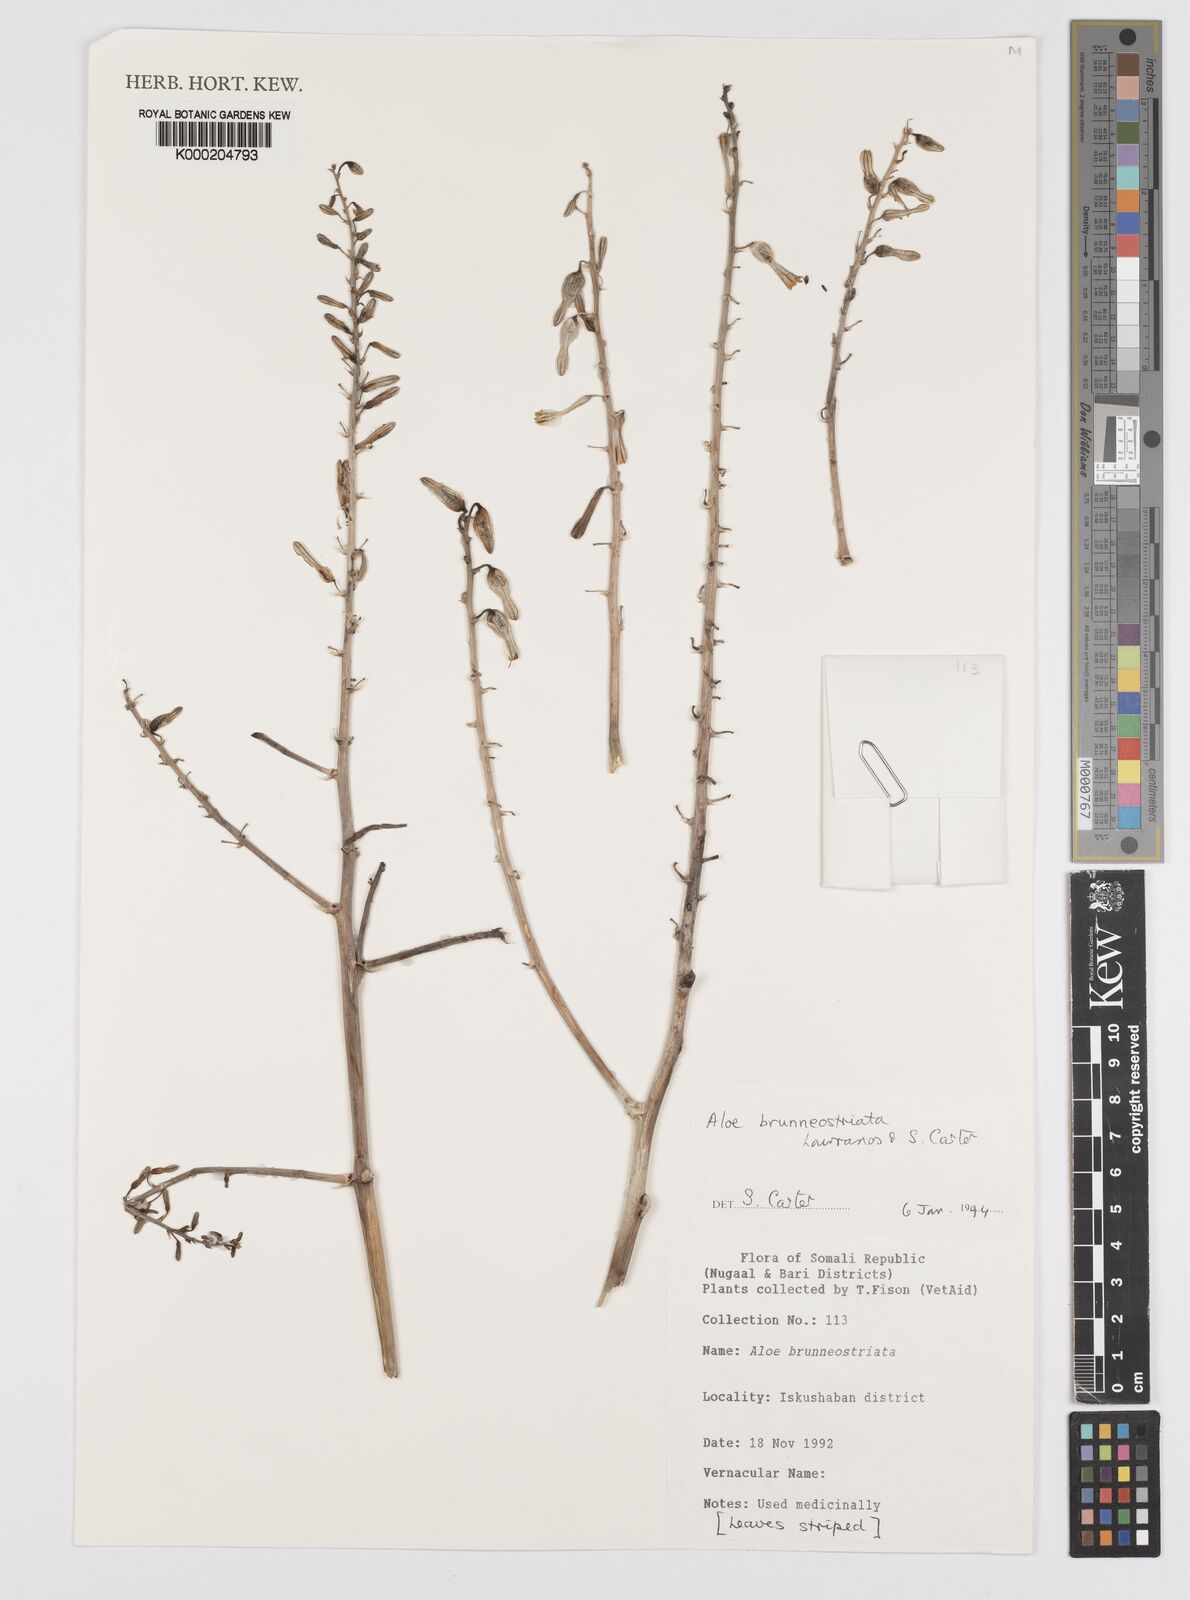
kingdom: Plantae
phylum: Tracheophyta
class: Liliopsida
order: Asparagales
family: Asphodelaceae
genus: Aloe
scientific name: Aloe brunneostriata
